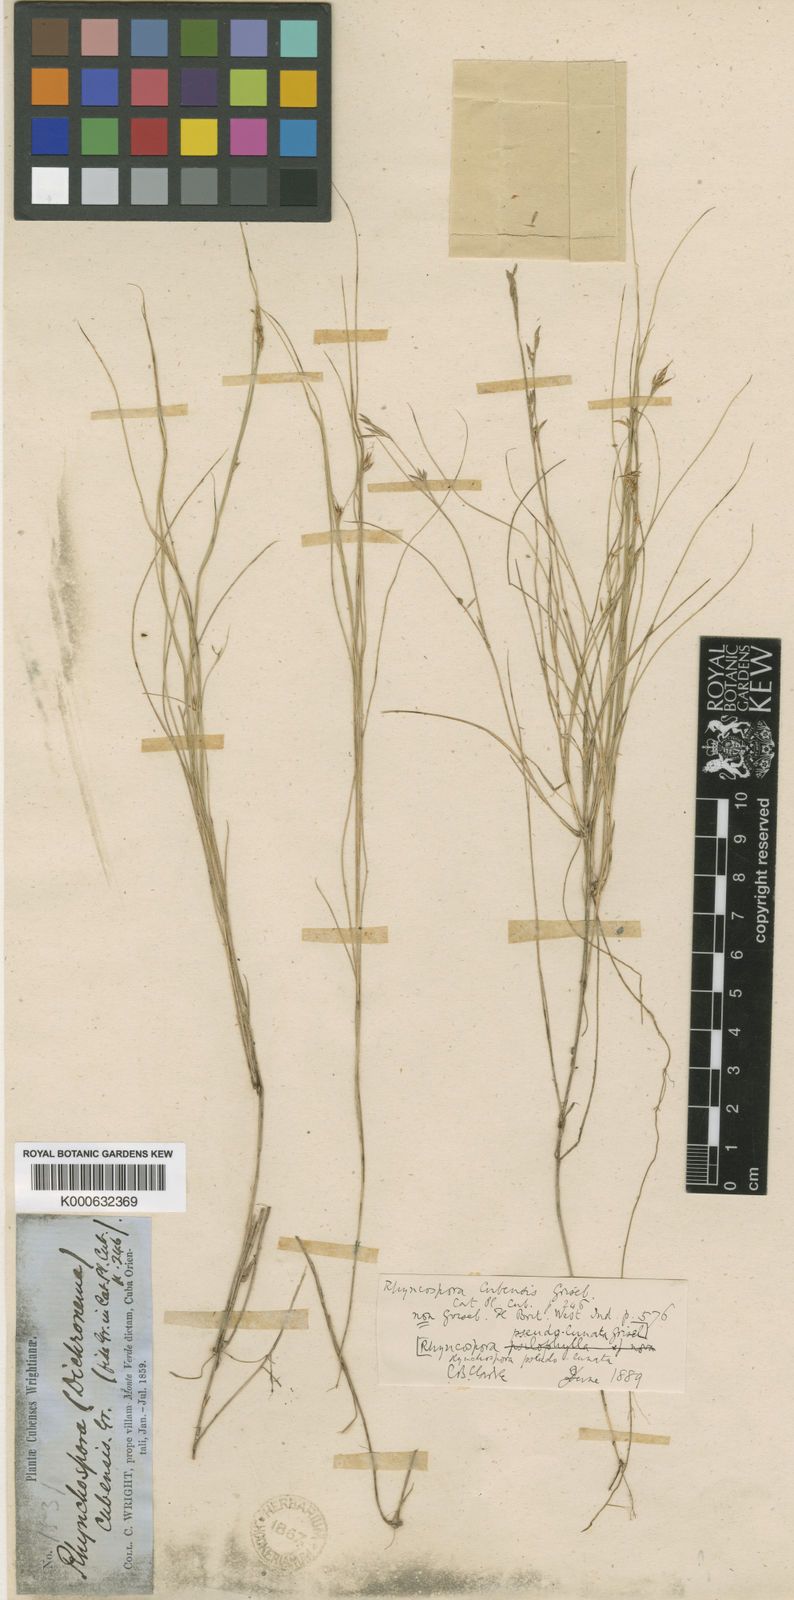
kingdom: Plantae
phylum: Tracheophyta
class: Liliopsida
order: Poales
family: Cyperaceae
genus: Rhynchospora
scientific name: Rhynchospora rariflora
